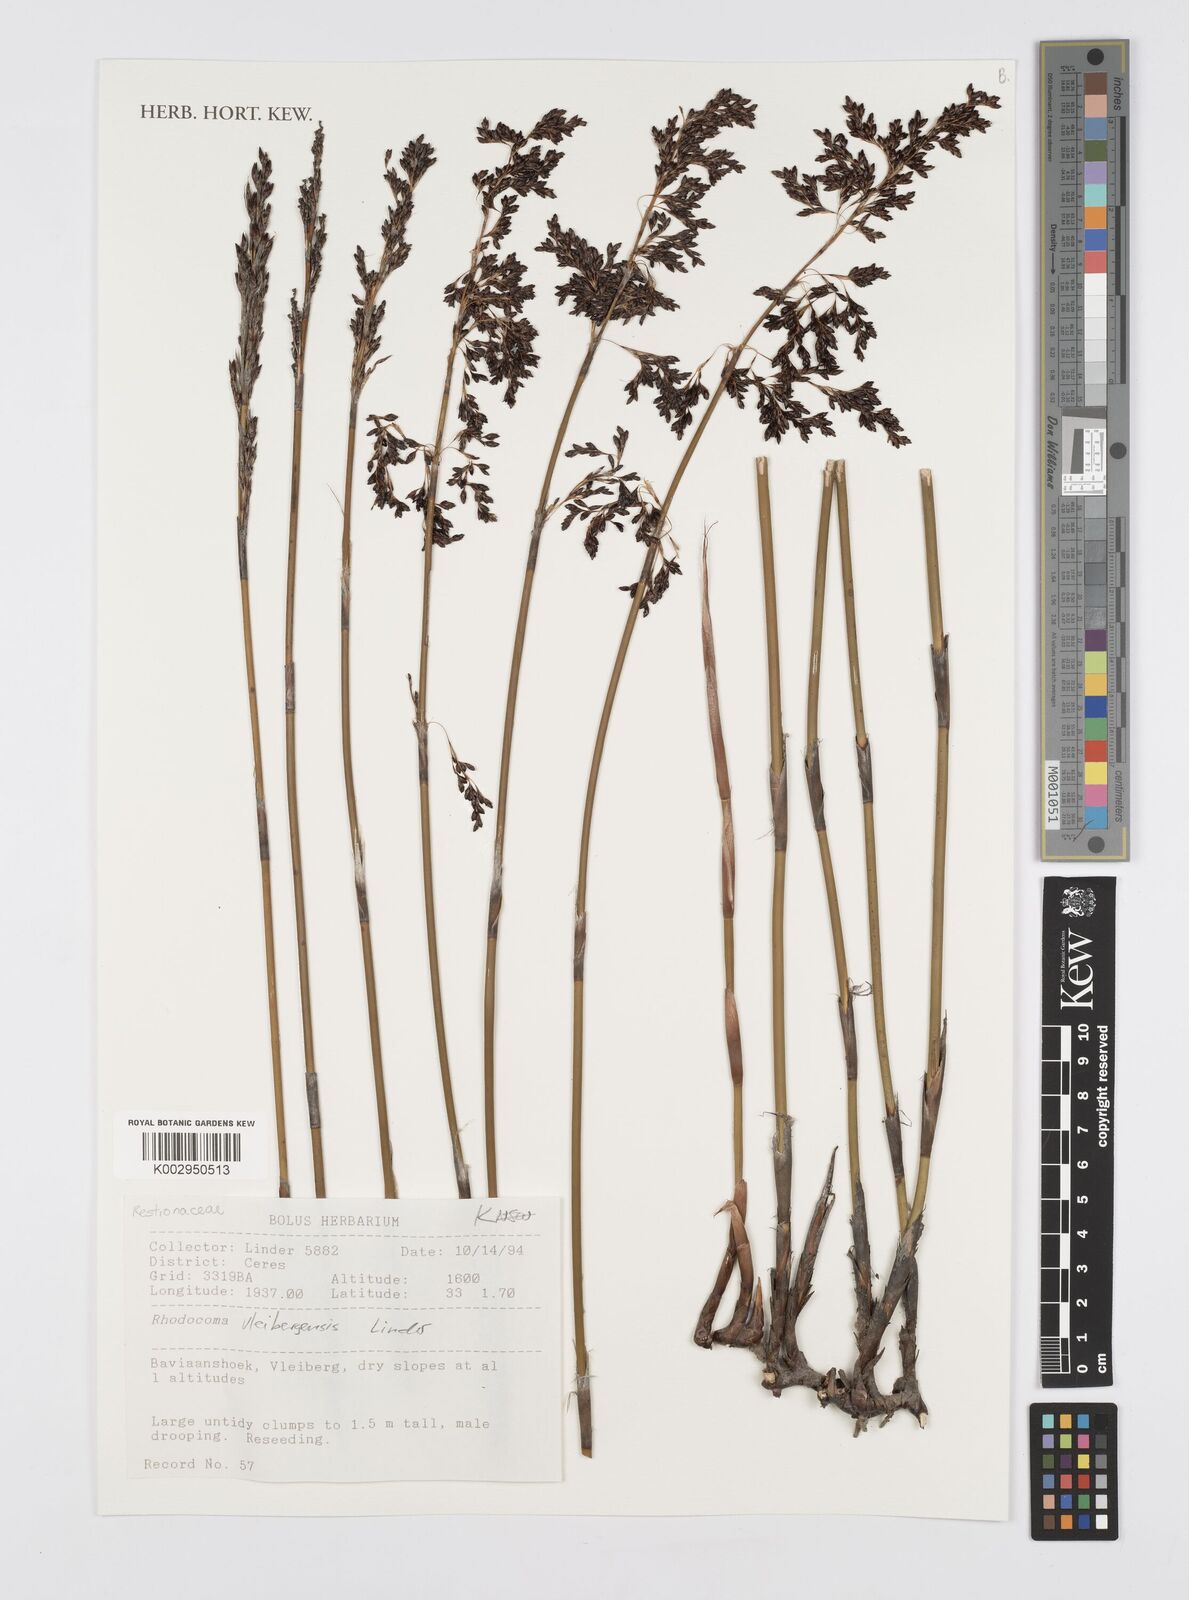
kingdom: Plantae
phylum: Tracheophyta
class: Liliopsida
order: Poales
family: Restionaceae
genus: Rhodocoma
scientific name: Rhodocoma vleibergensis
